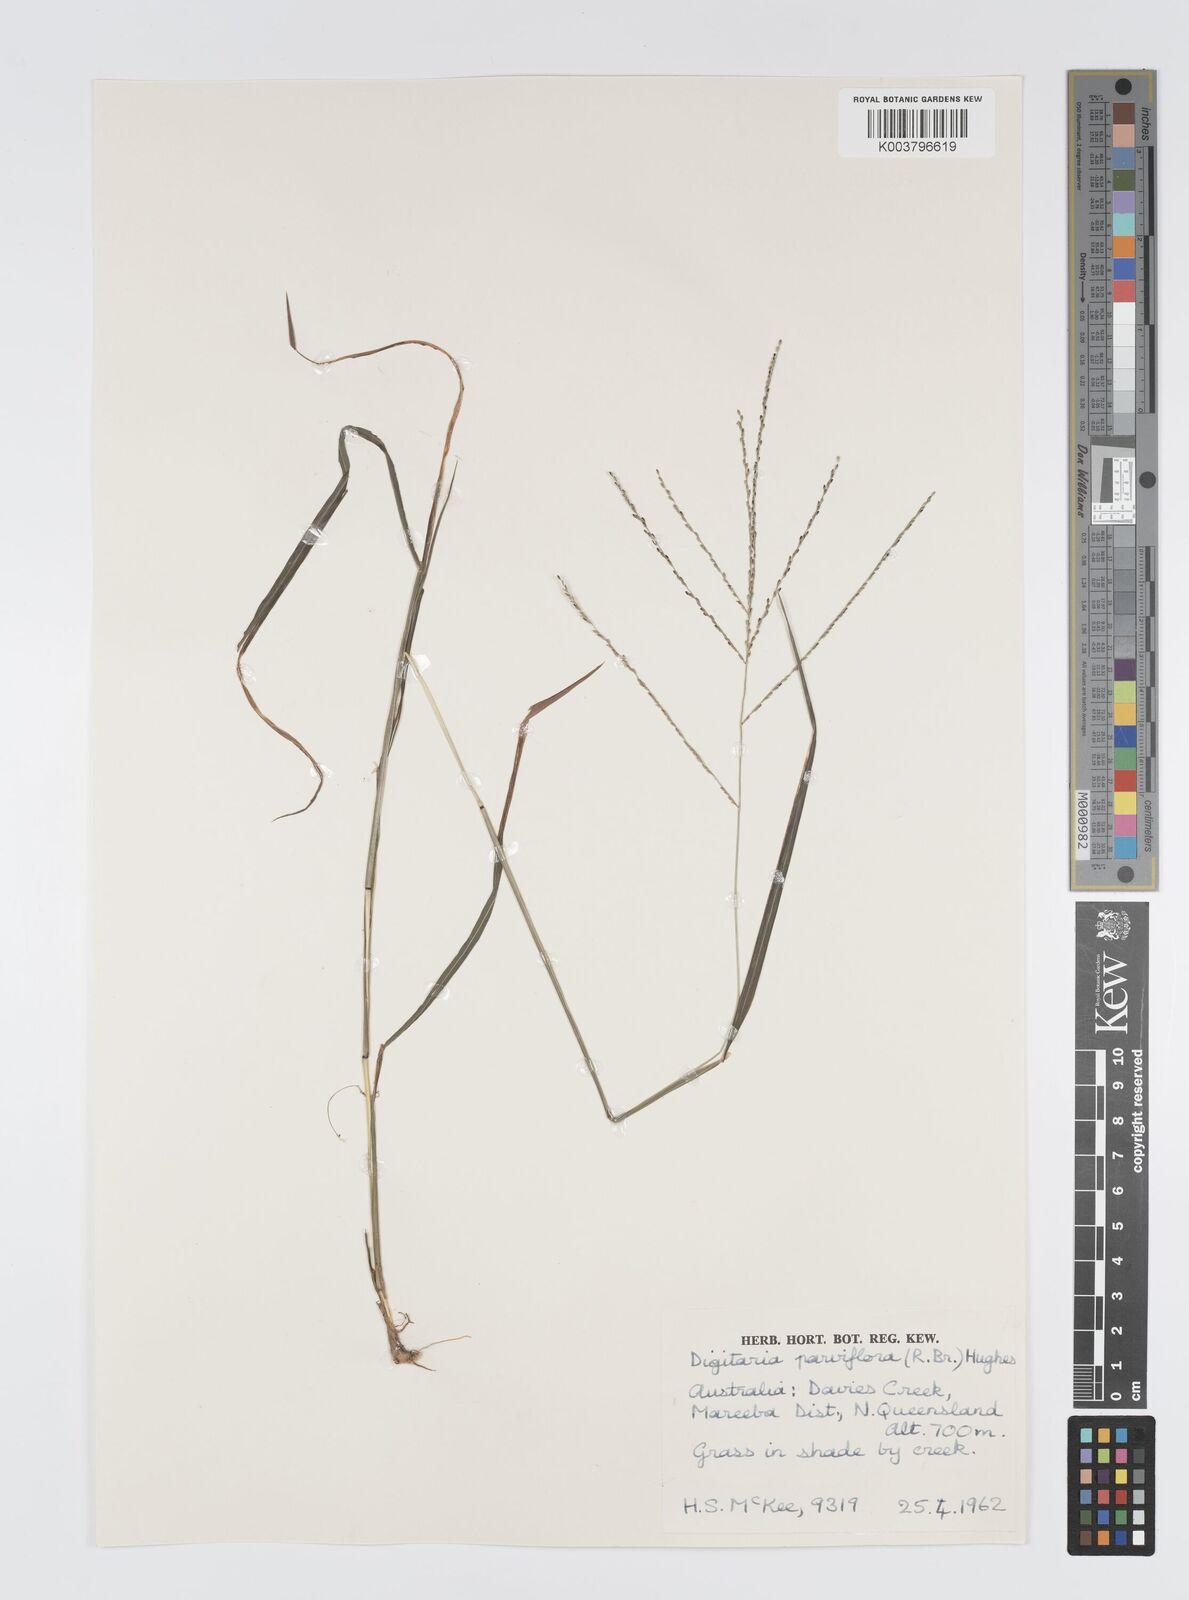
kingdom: Plantae
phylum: Tracheophyta
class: Liliopsida
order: Poales
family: Poaceae
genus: Digitaria
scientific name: Digitaria parviflora
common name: Small-flower finger grass
